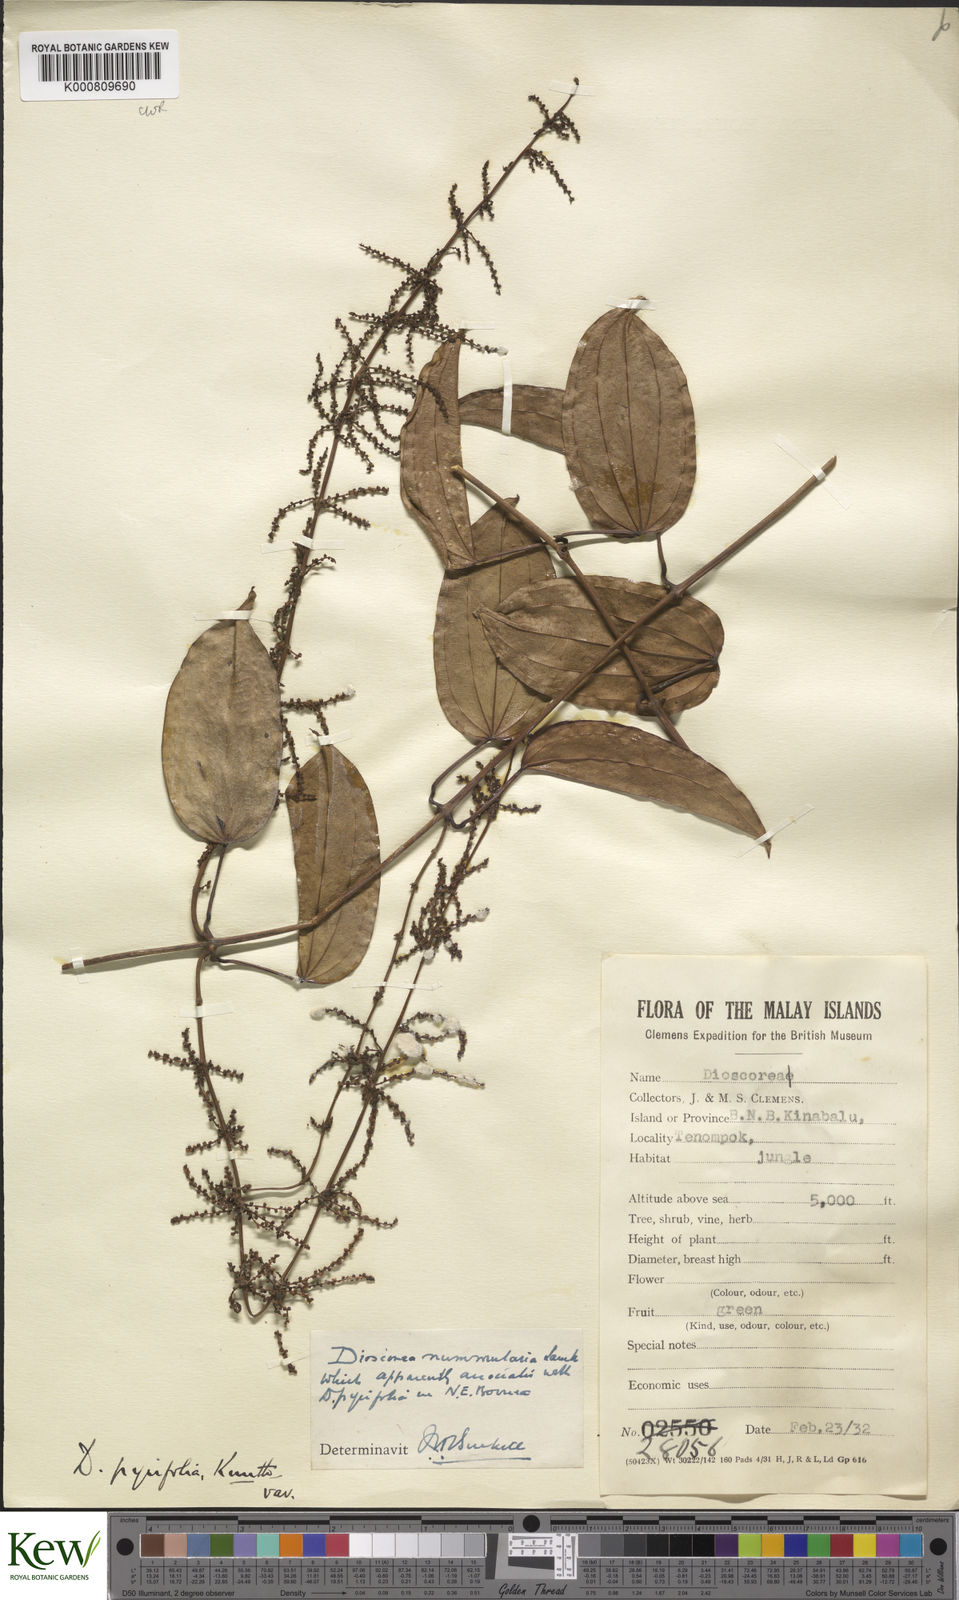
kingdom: Plantae
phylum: Tracheophyta
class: Liliopsida
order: Dioscoreales
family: Dioscoreaceae
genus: Dioscorea
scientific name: Dioscorea nummularia
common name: Pacific yam
